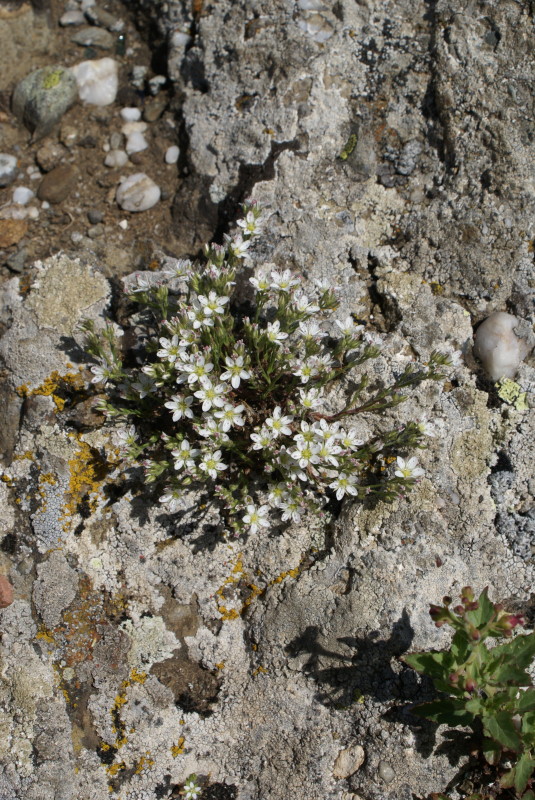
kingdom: Plantae
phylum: Tracheophyta
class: Magnoliopsida
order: Saxifragales
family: Saxifragaceae
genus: Saxifraga
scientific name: Saxifraga tridactylites
